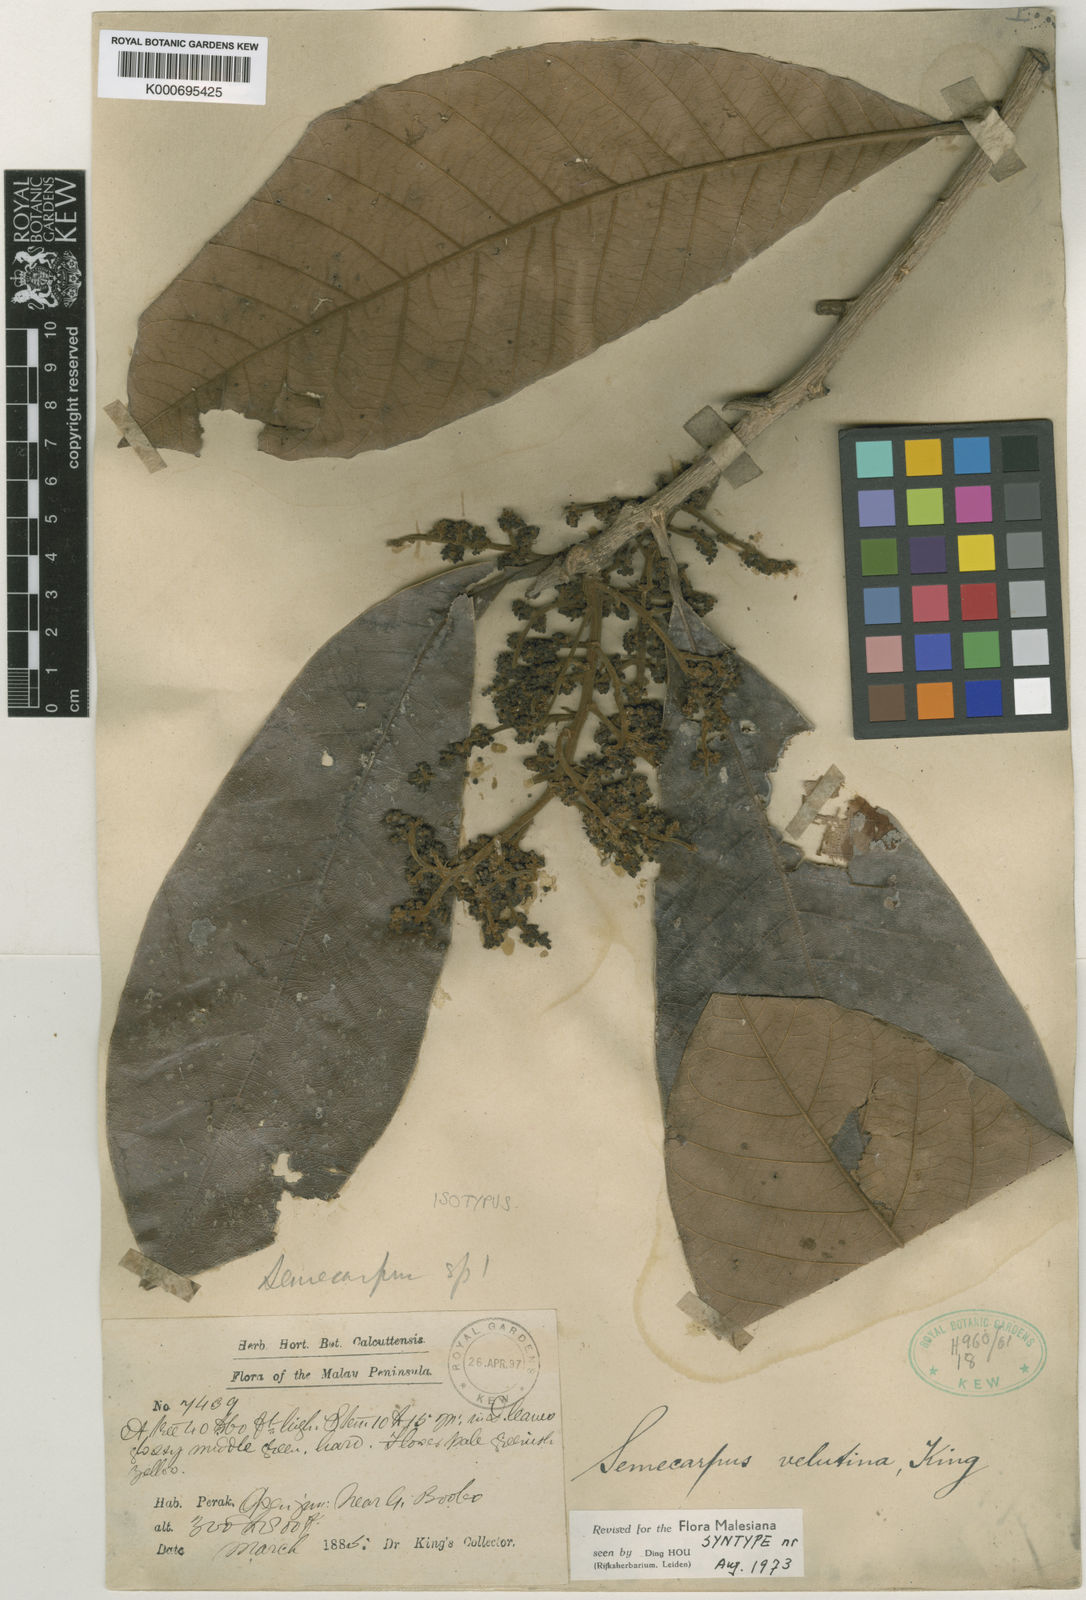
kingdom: Plantae
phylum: Tracheophyta
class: Magnoliopsida
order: Sapindales
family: Anacardiaceae
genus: Semecarpus
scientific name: Semecarpus velutinus
